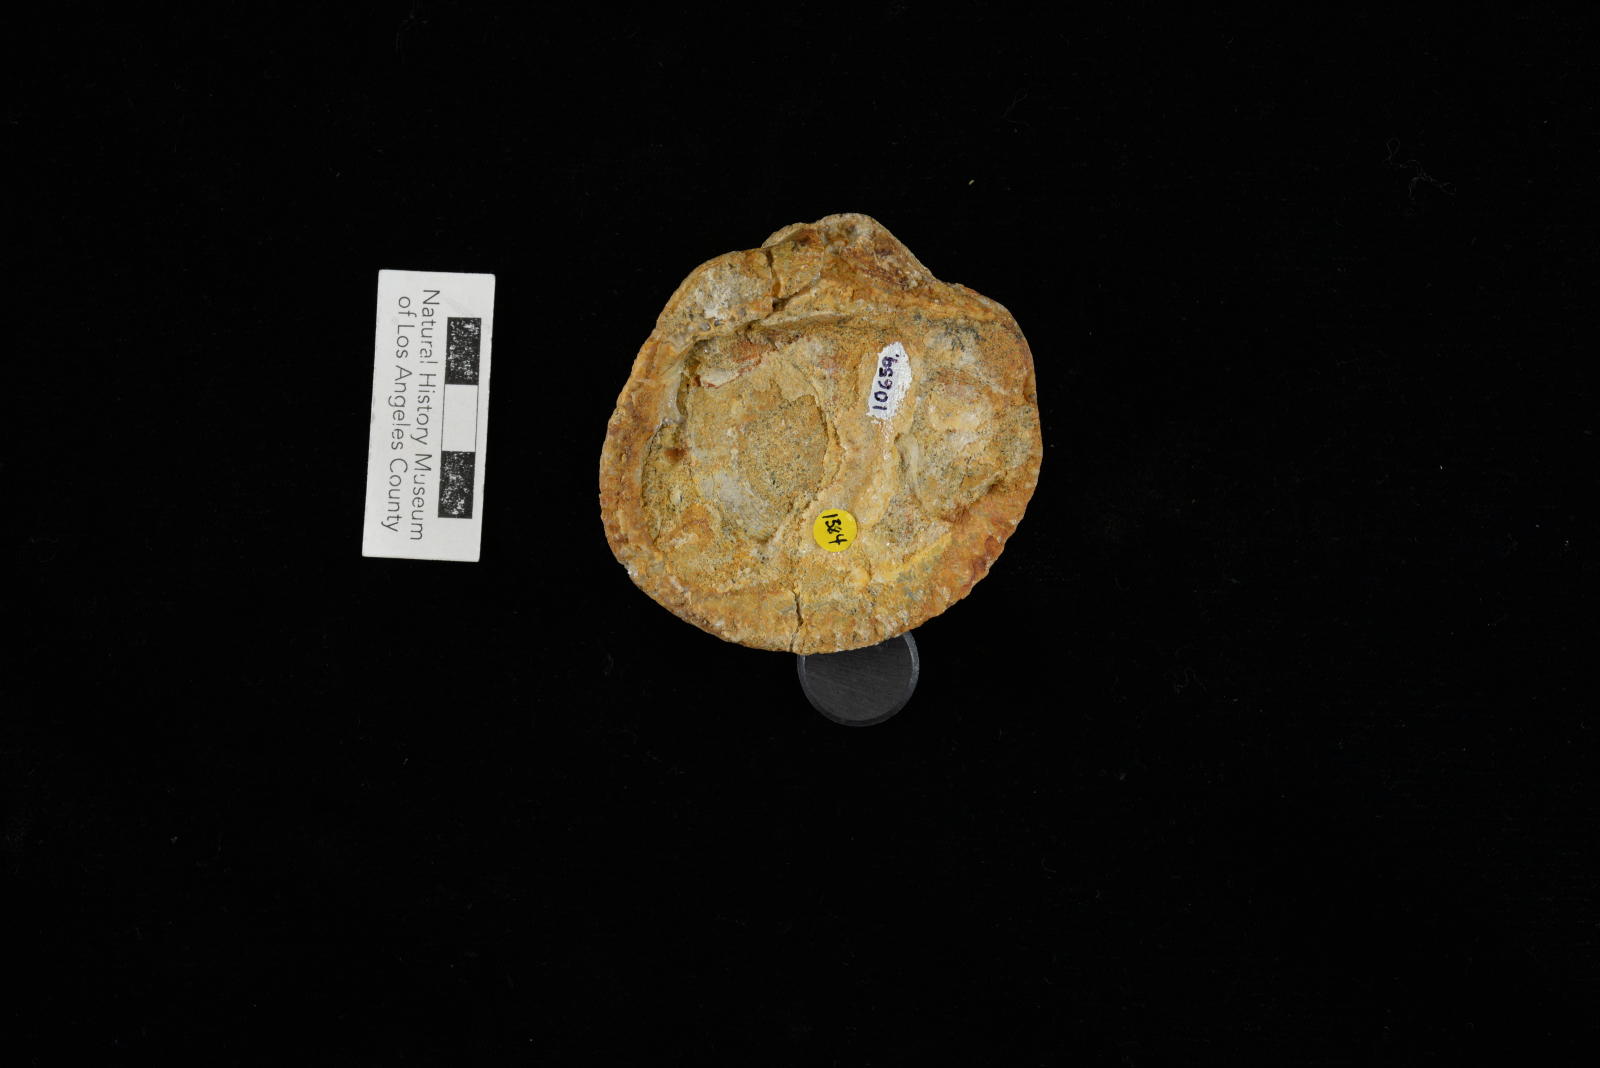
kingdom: Animalia
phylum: Mollusca
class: Bivalvia
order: Arcida
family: Glycymerididae
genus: Glycymerita
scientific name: Glycymerita Glycymeris banosensis
